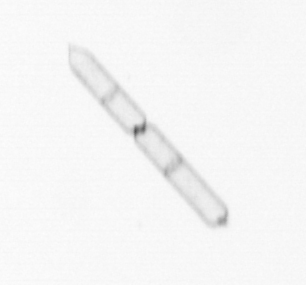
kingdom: Chromista
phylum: Ochrophyta
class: Bacillariophyceae
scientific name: Bacillariophyceae
